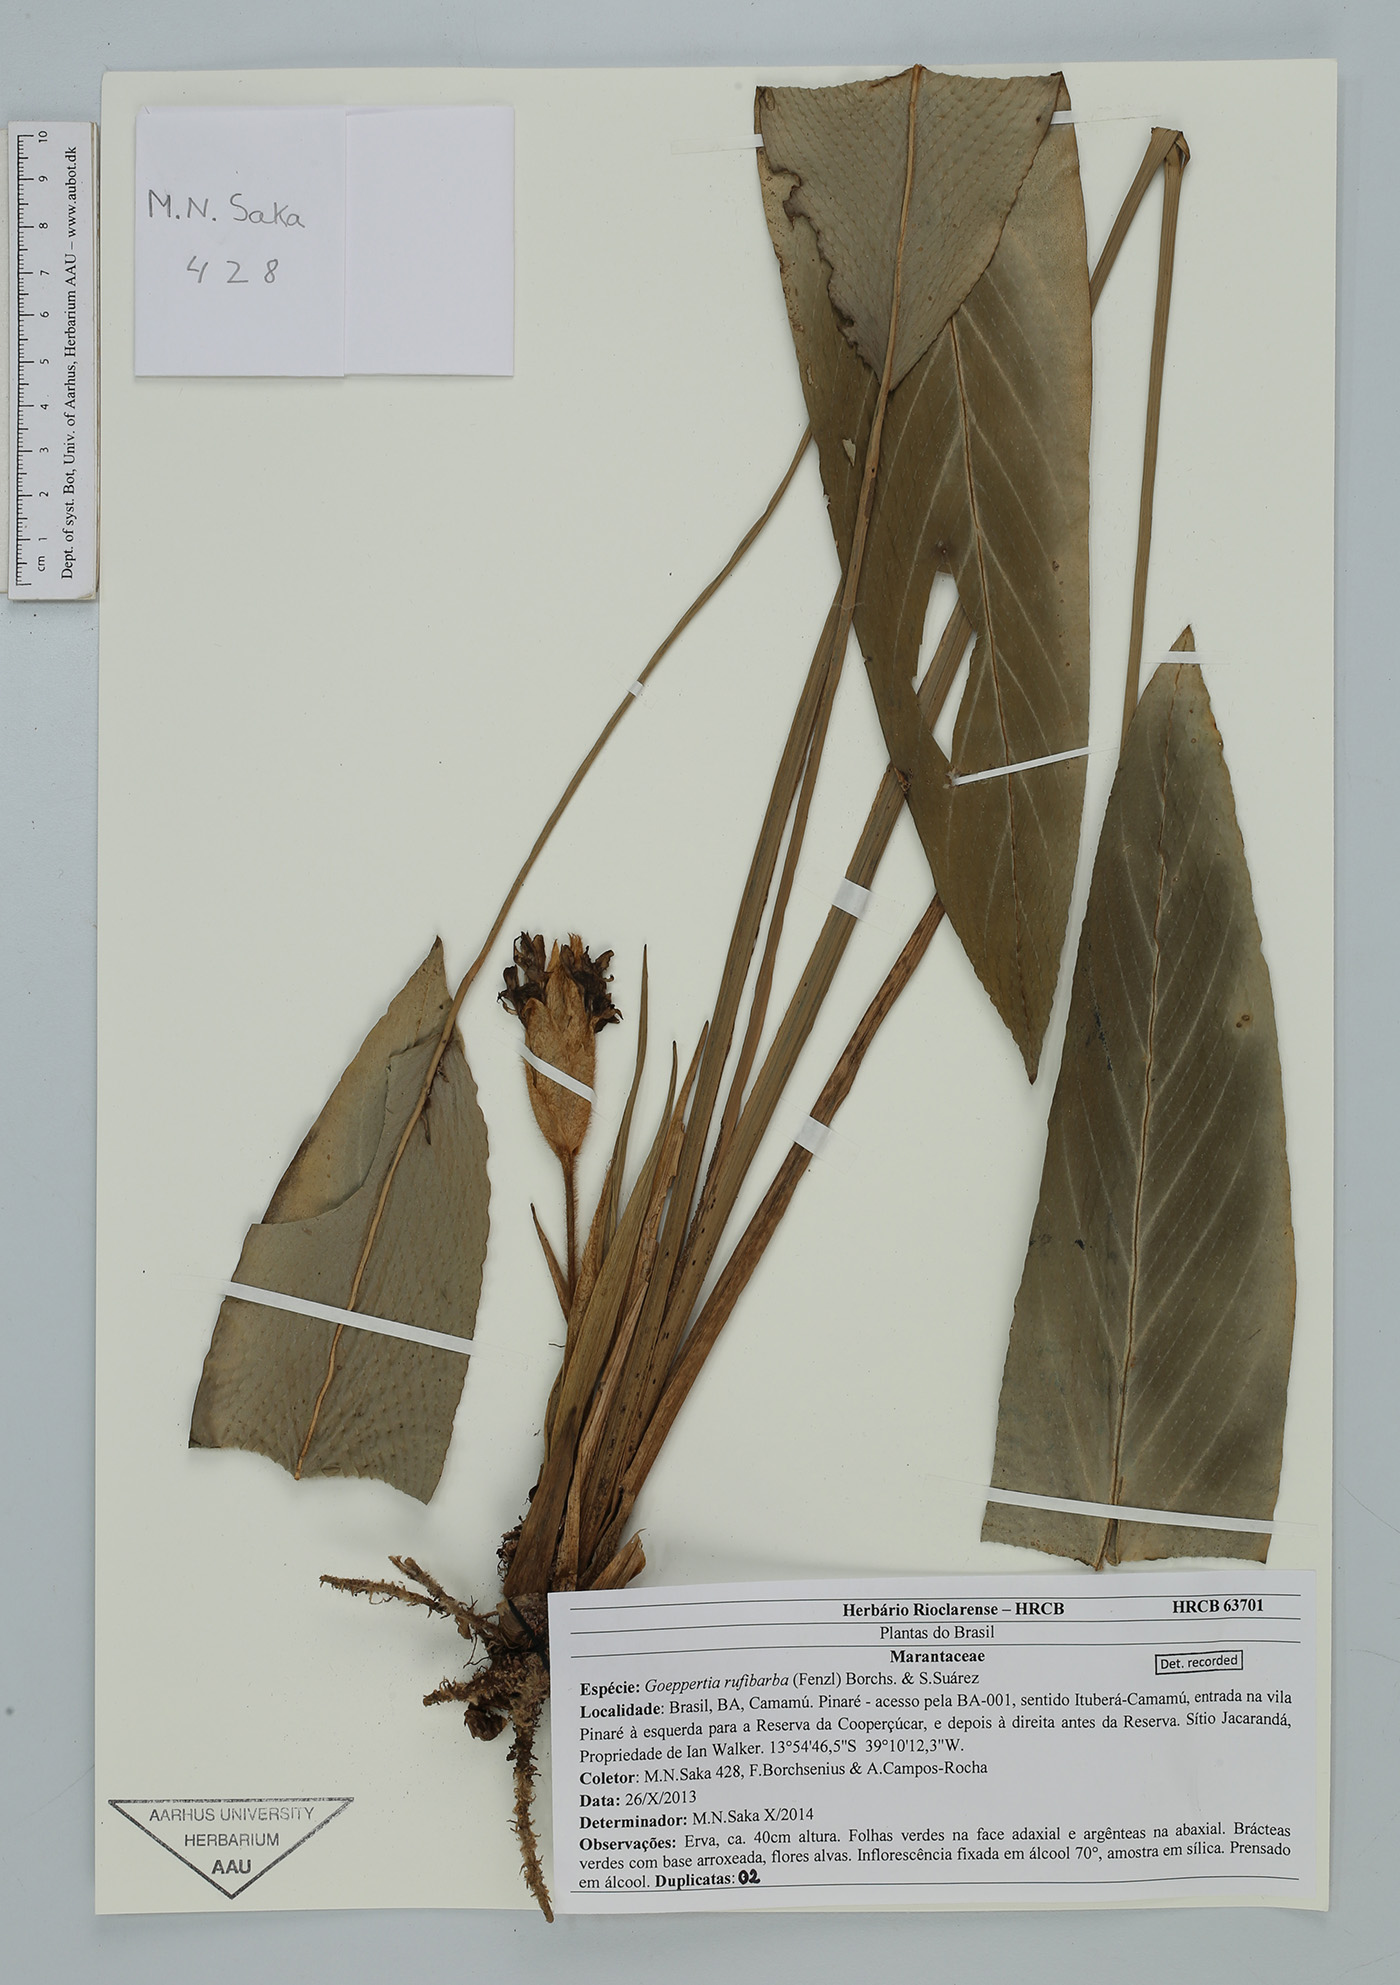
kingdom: Plantae
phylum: Tracheophyta
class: Liliopsida
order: Zingiberales
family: Marantaceae
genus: Goeppertia
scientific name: Goeppertia rufibarba
